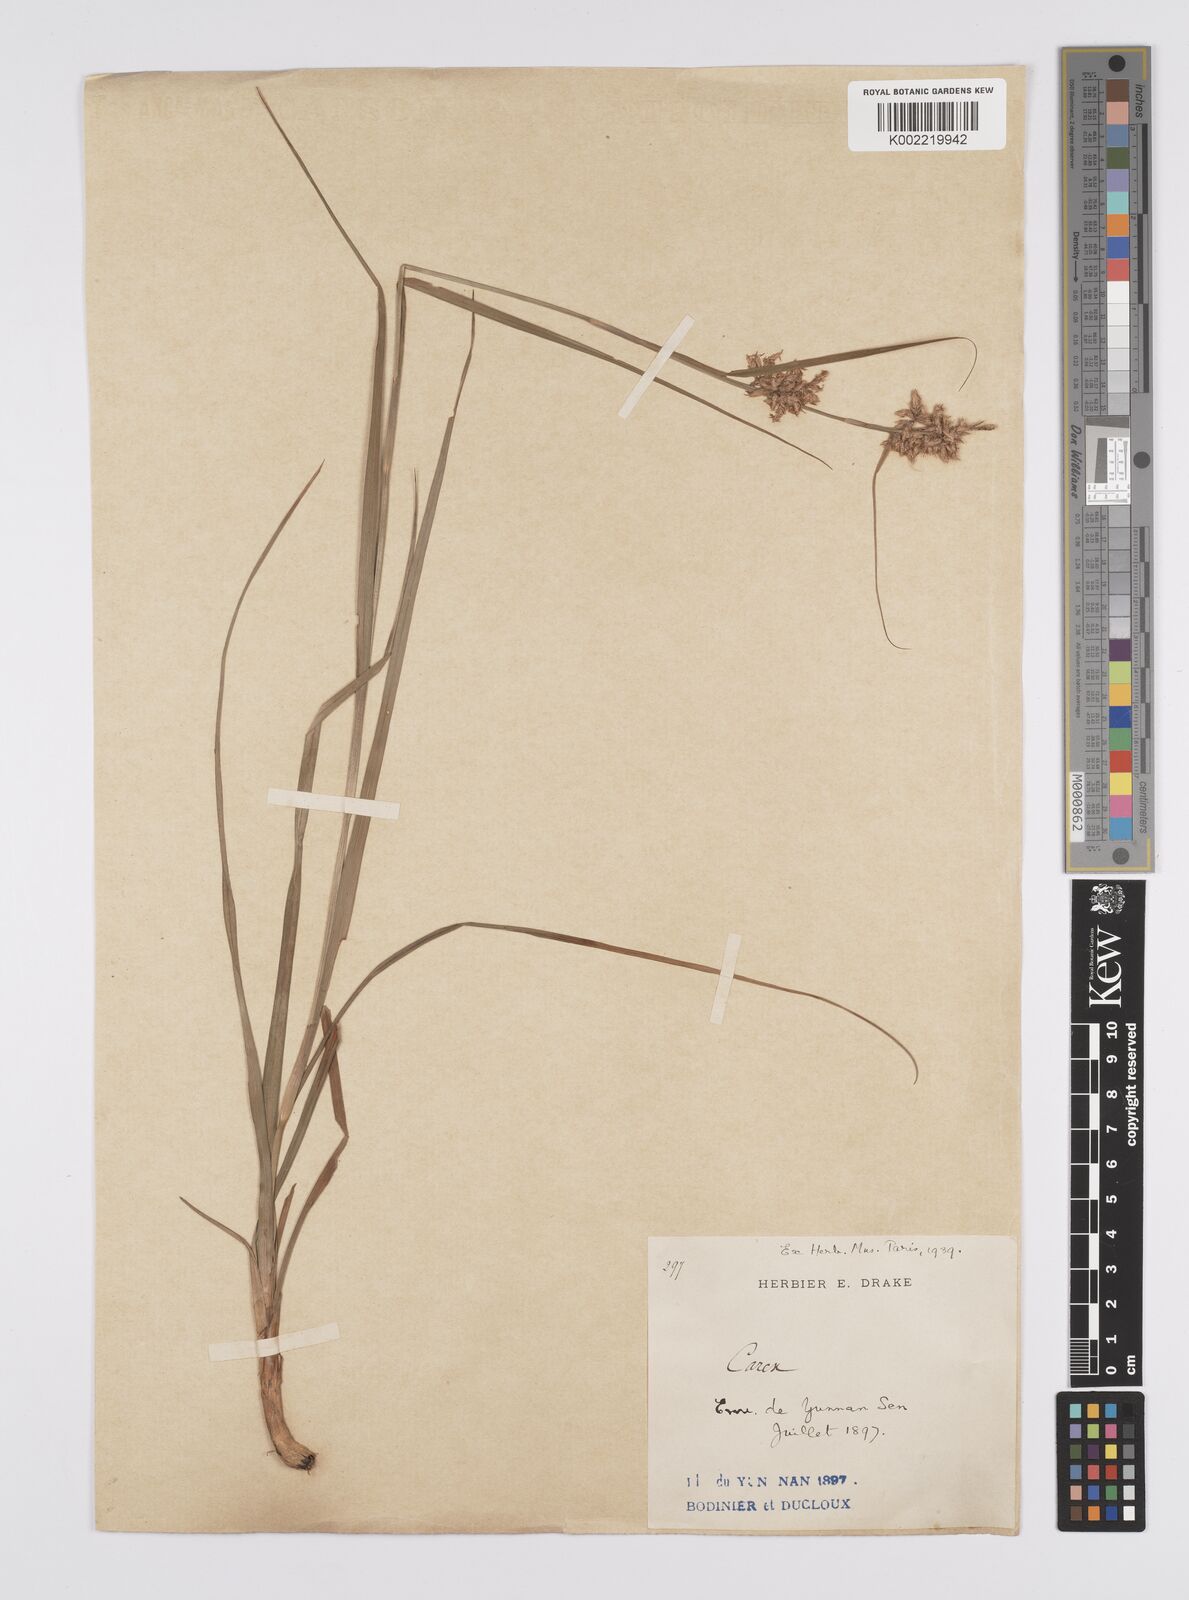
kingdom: Plantae
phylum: Tracheophyta
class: Liliopsida
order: Poales
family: Cyperaceae
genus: Carex
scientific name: Carex cruciata
